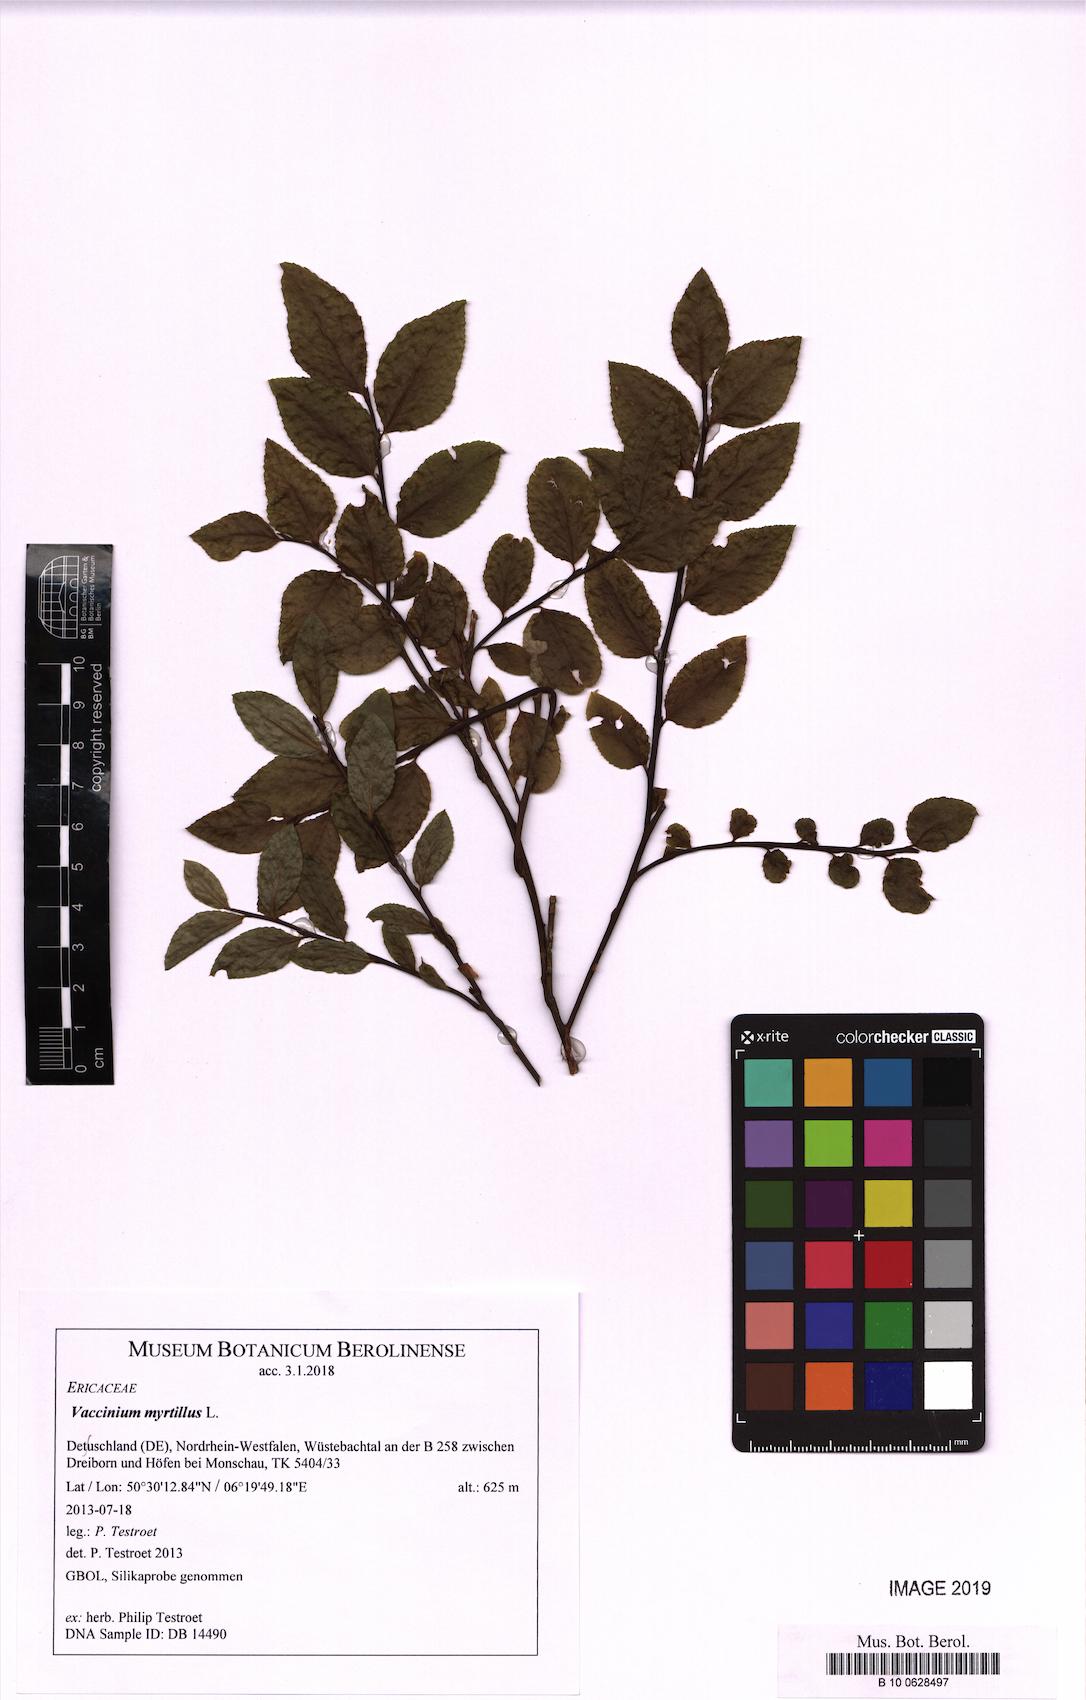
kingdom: Plantae
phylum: Tracheophyta
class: Magnoliopsida
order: Ericales
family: Ericaceae
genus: Vaccinium
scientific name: Vaccinium myrtillus
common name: Bilberry
